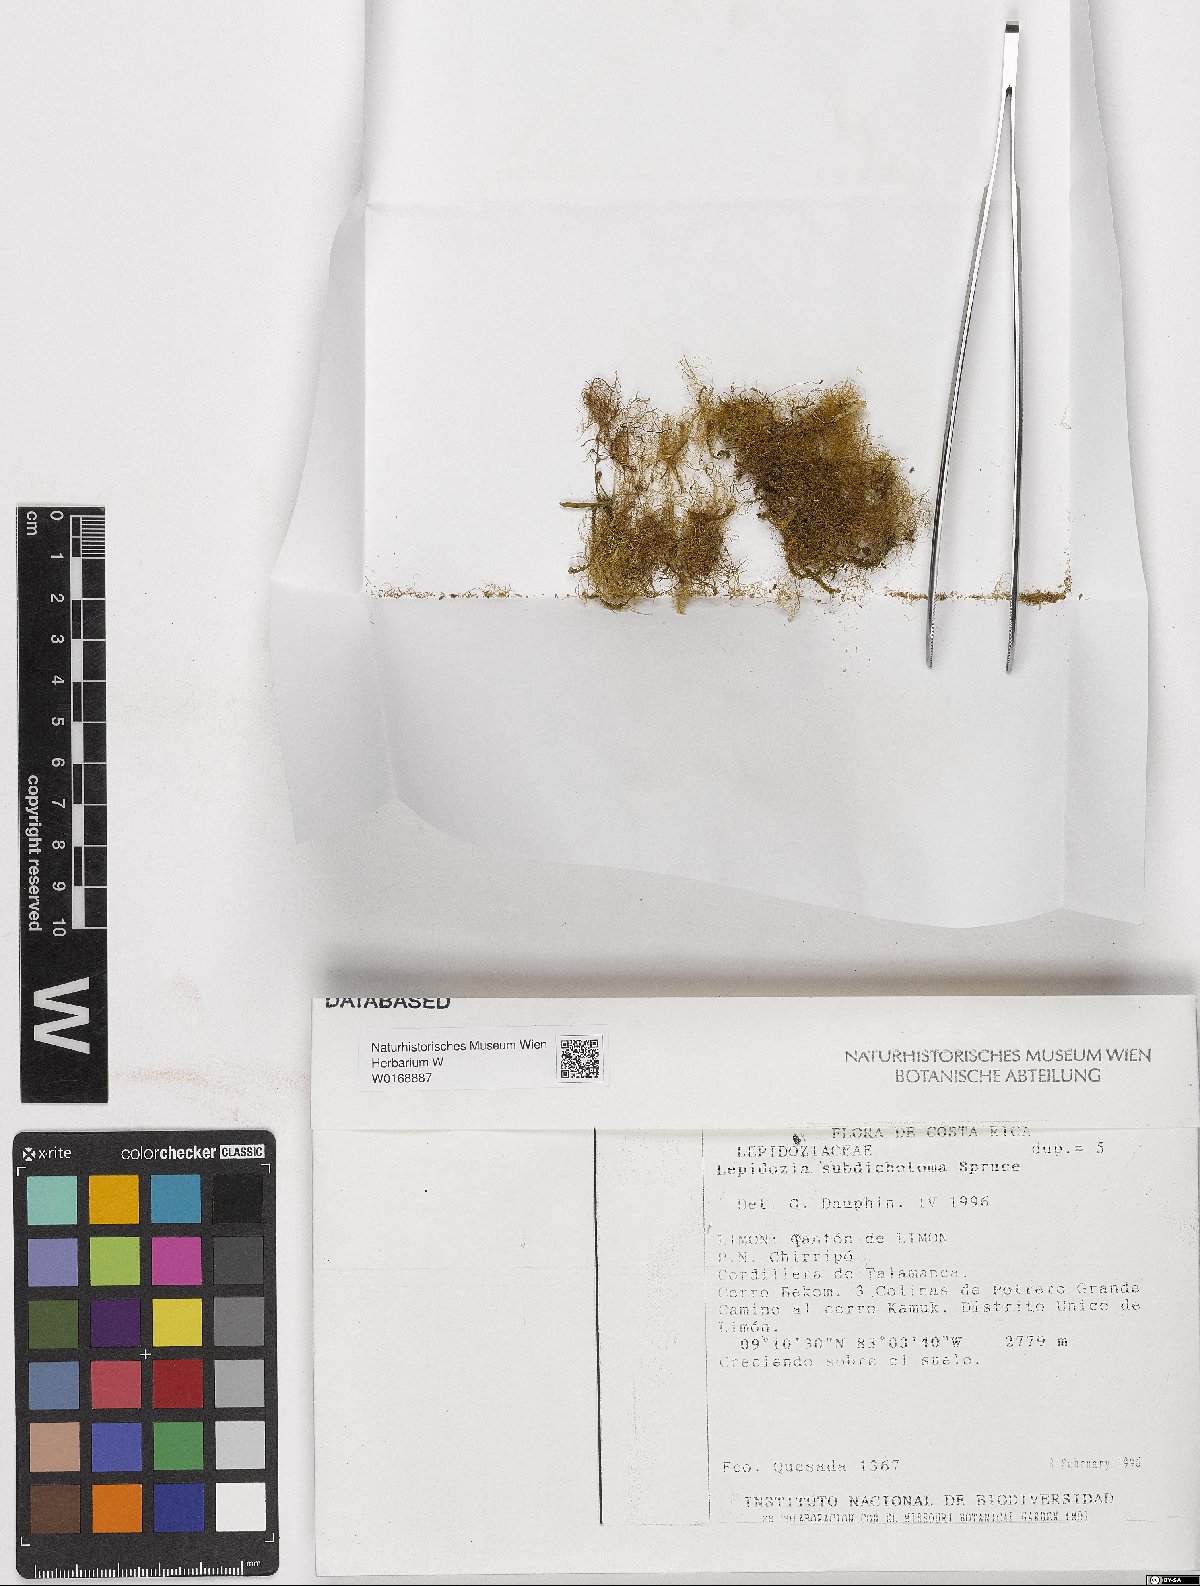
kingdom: Plantae
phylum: Marchantiophyta
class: Jungermanniopsida
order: Jungermanniales
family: Lepidoziaceae
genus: Lepidozia
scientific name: Lepidozia
